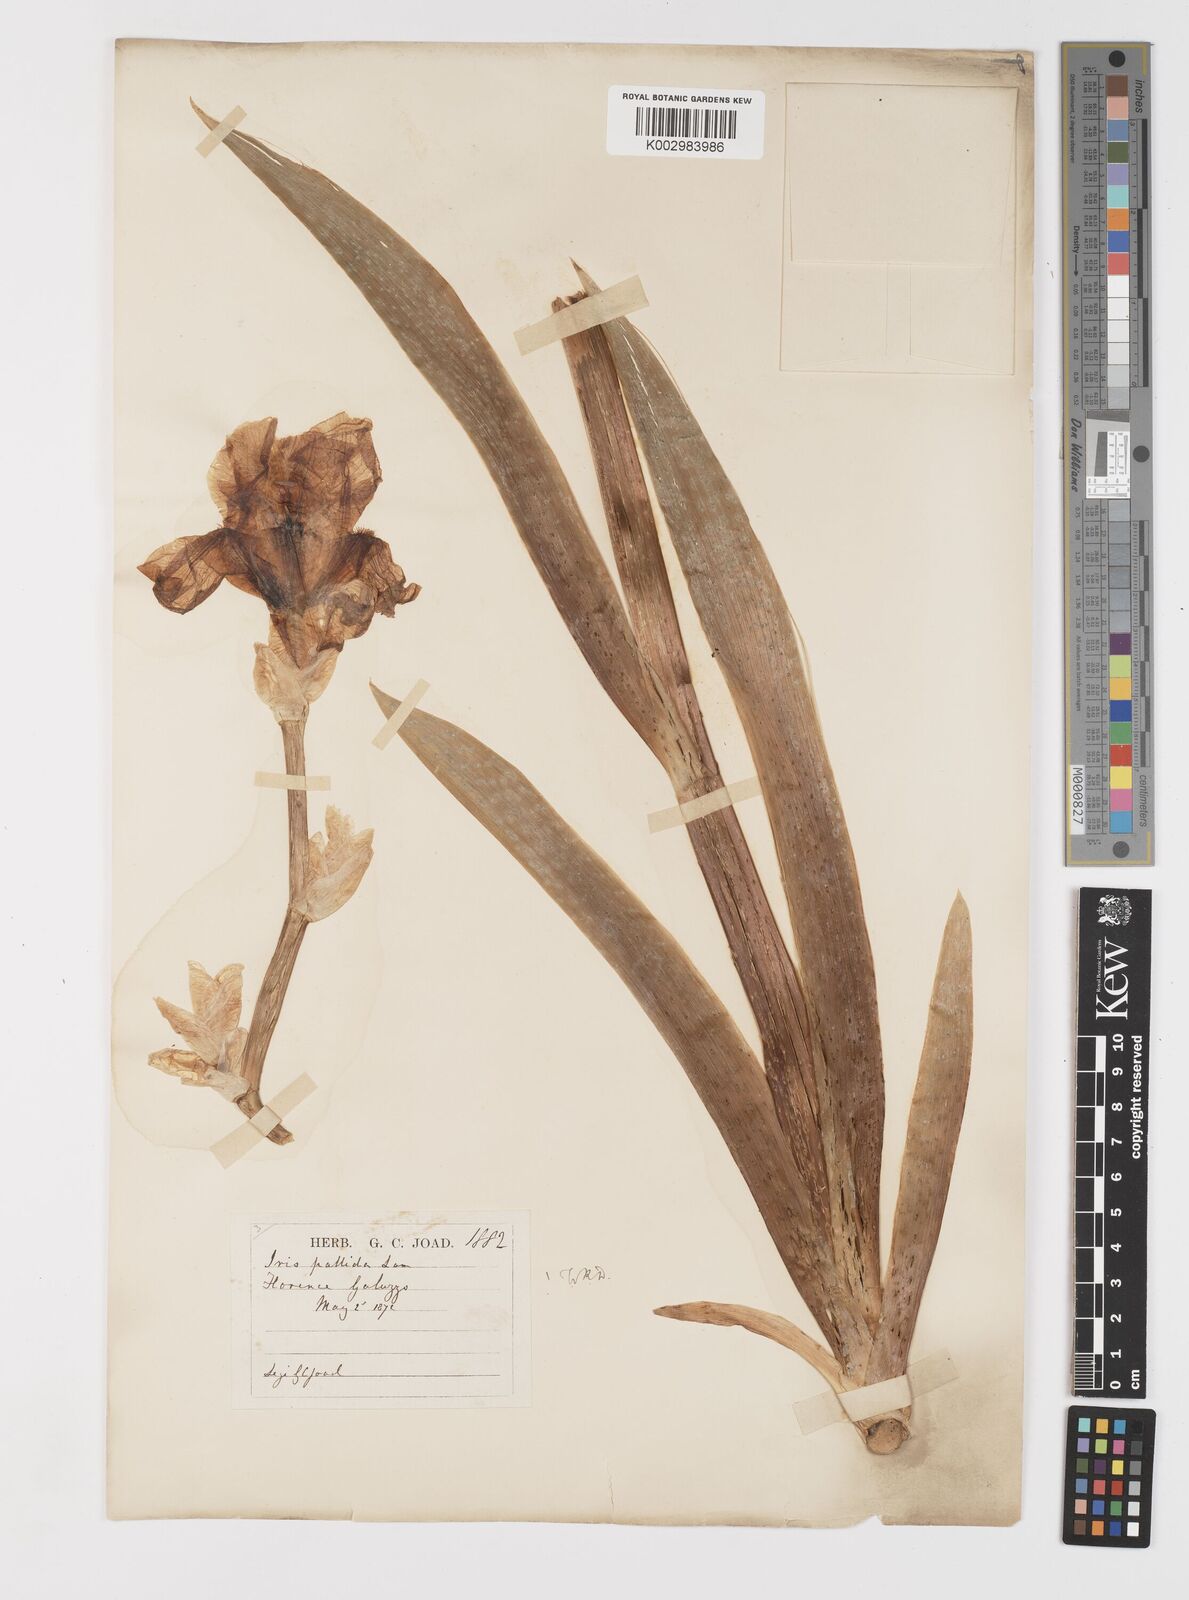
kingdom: Plantae
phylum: Tracheophyta
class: Liliopsida
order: Asparagales
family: Iridaceae
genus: Iris
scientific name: Iris halophila
